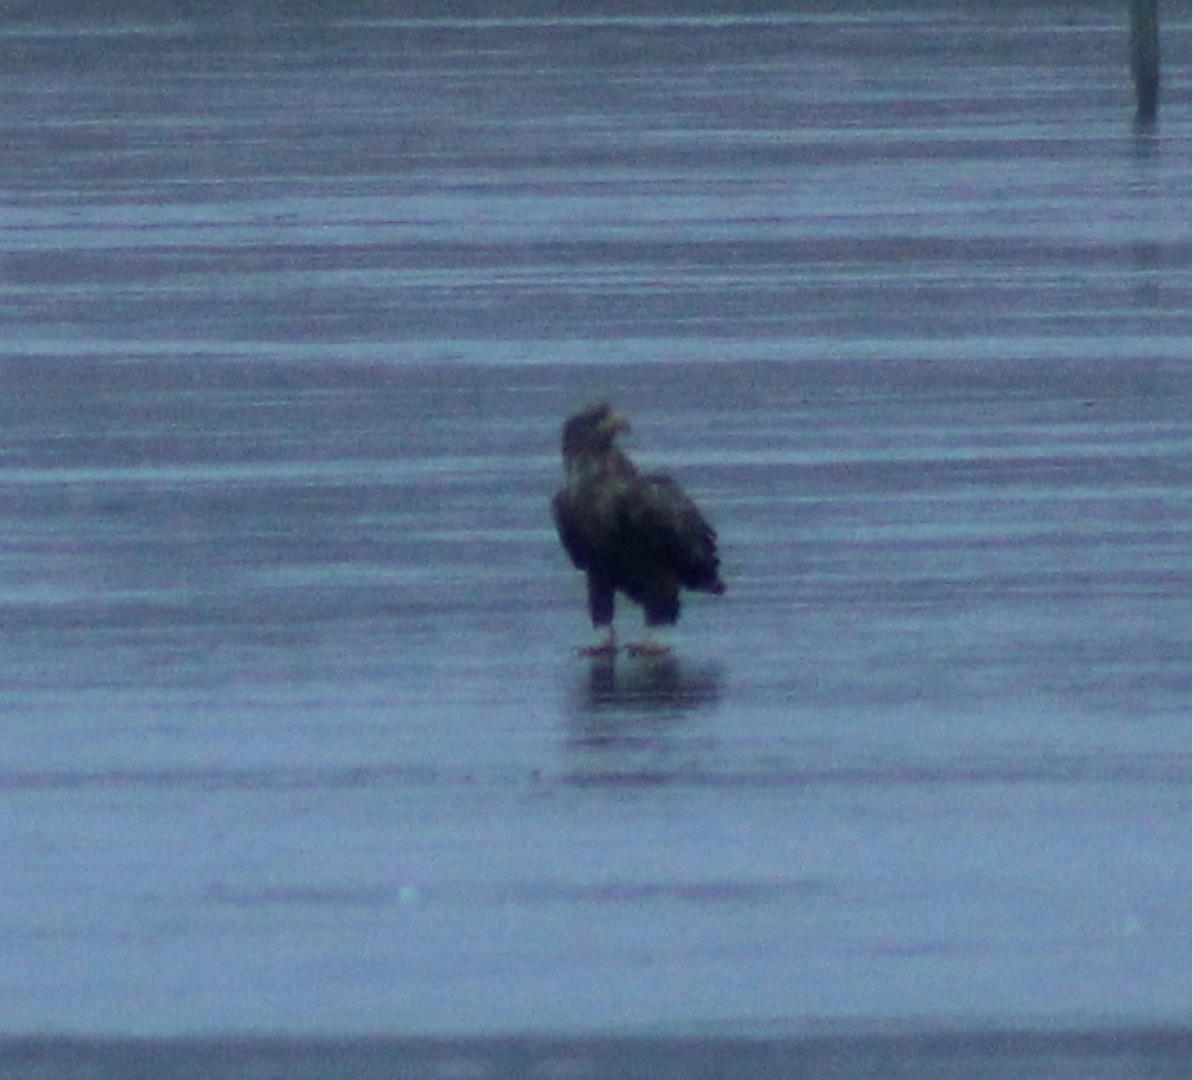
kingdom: Animalia
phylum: Chordata
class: Aves
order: Accipitriformes
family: Accipitridae
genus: Haliaeetus
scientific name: Haliaeetus albicilla
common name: Havørn
